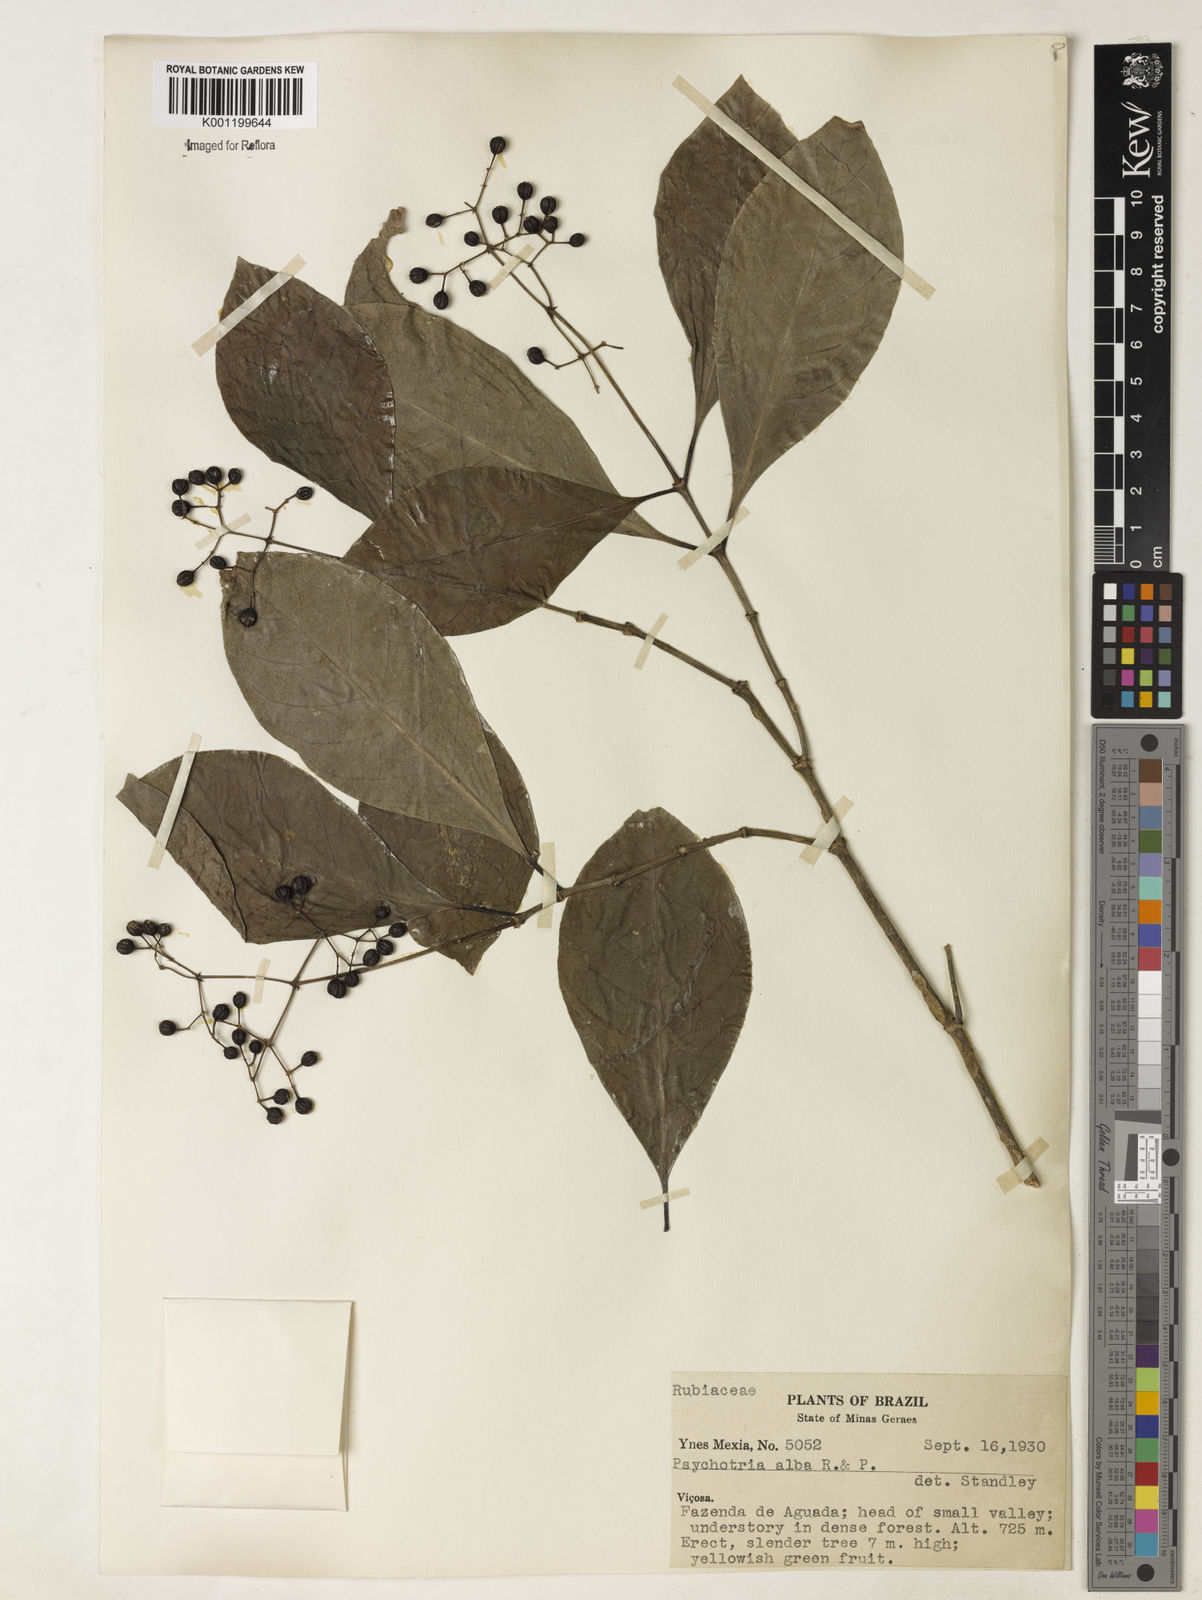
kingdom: Plantae
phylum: Tracheophyta
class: Magnoliopsida
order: Gentianales
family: Rubiaceae
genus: Psychotria
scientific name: Psychotria carthagenensis
